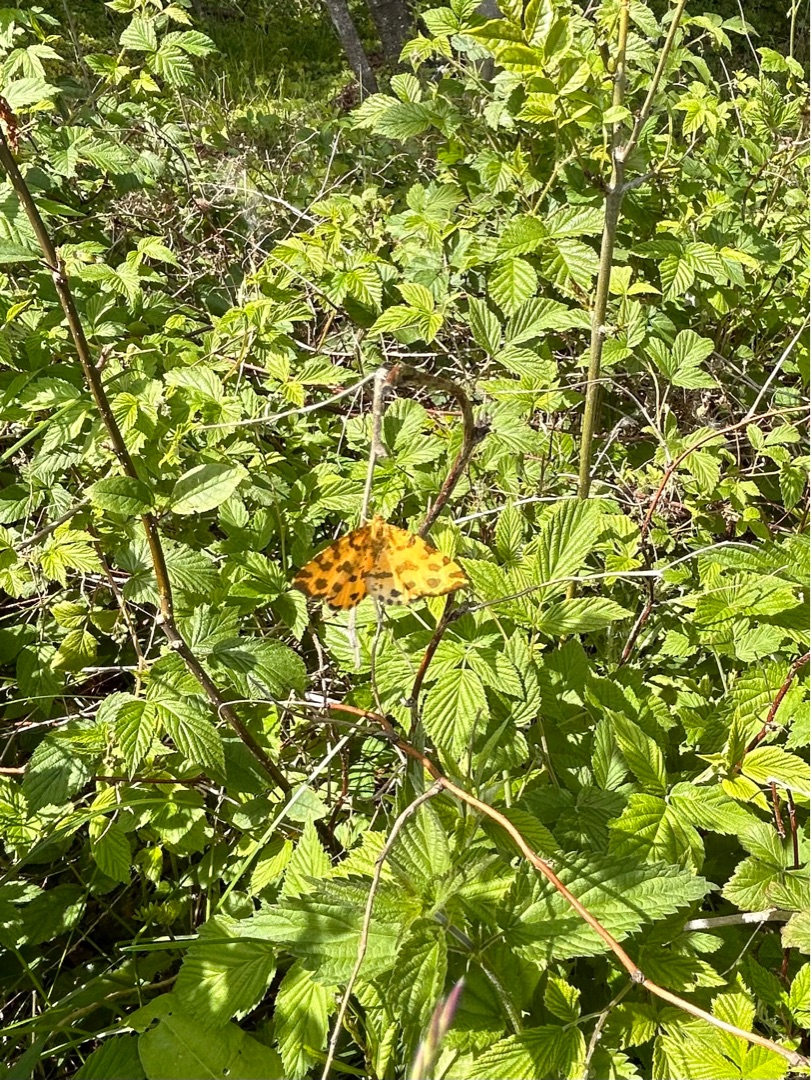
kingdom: Animalia
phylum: Arthropoda
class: Insecta
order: Lepidoptera
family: Geometridae
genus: Pseudopanthera
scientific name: Pseudopanthera macularia
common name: Leopardmåler
